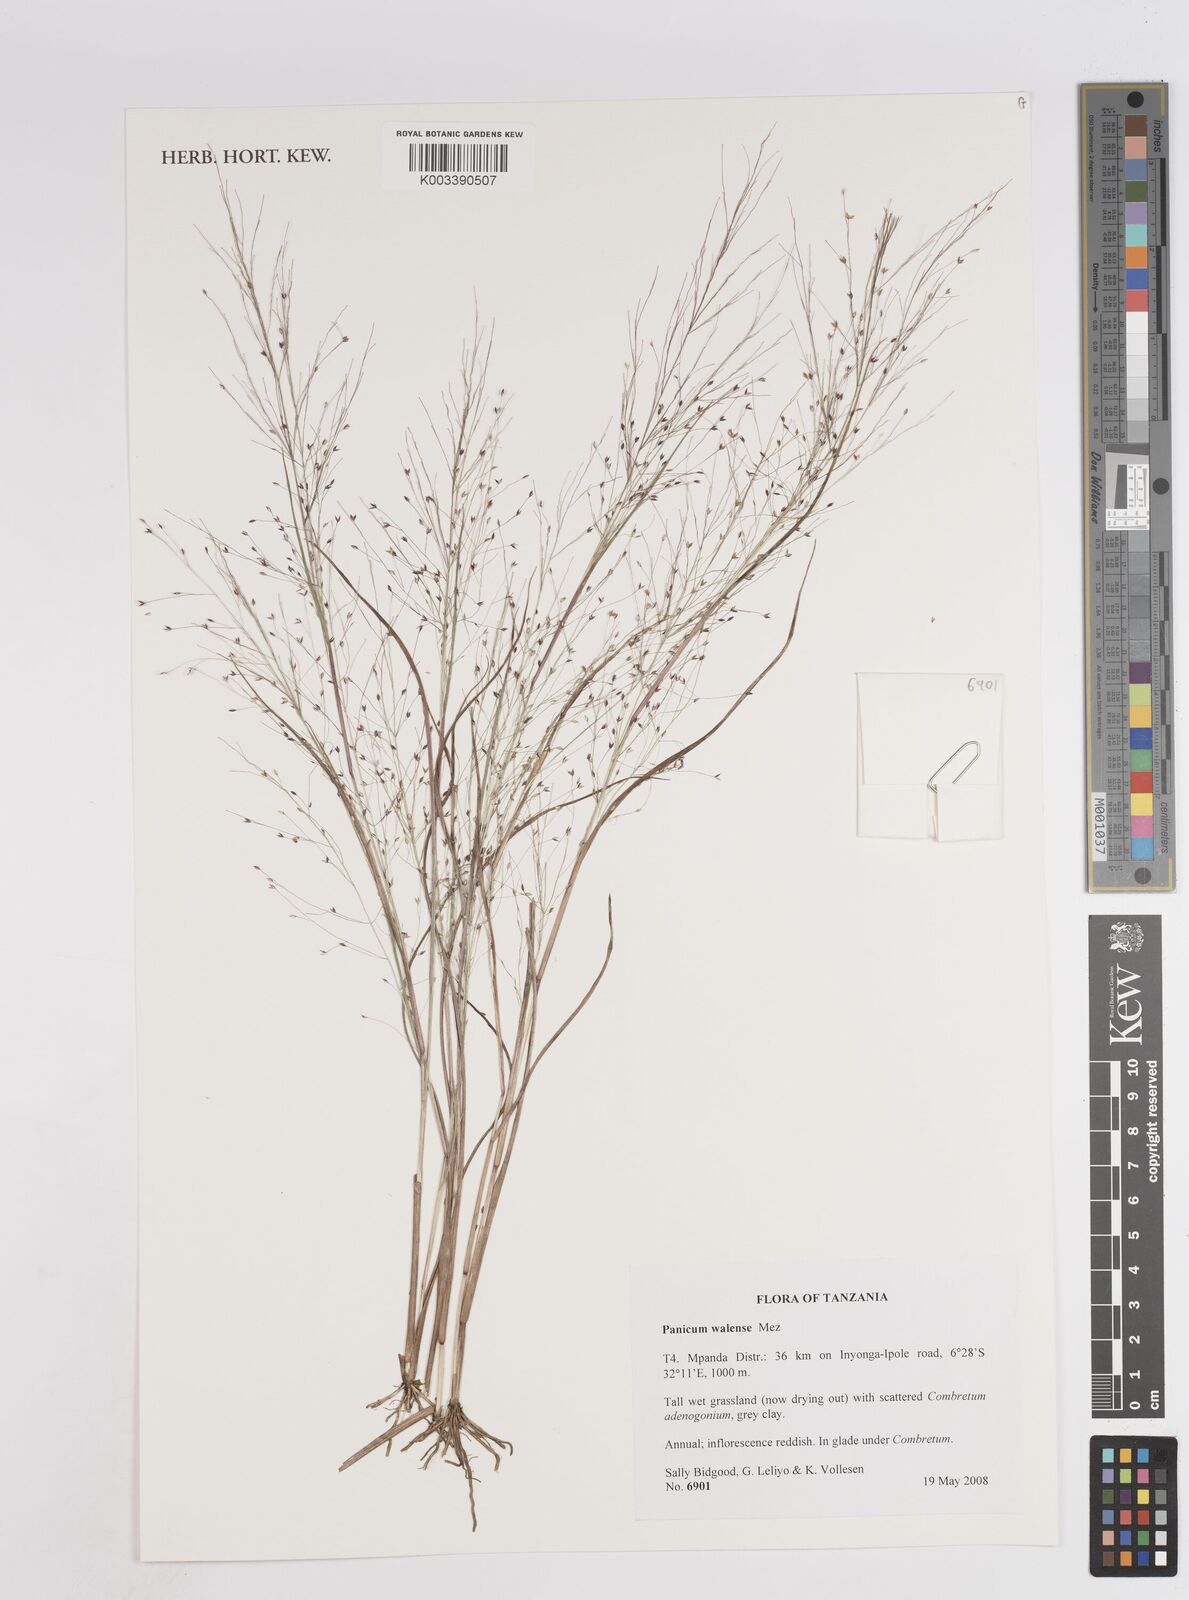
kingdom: Plantae
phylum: Tracheophyta
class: Liliopsida
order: Poales
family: Poaceae
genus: Panicum
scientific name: Panicum humile
